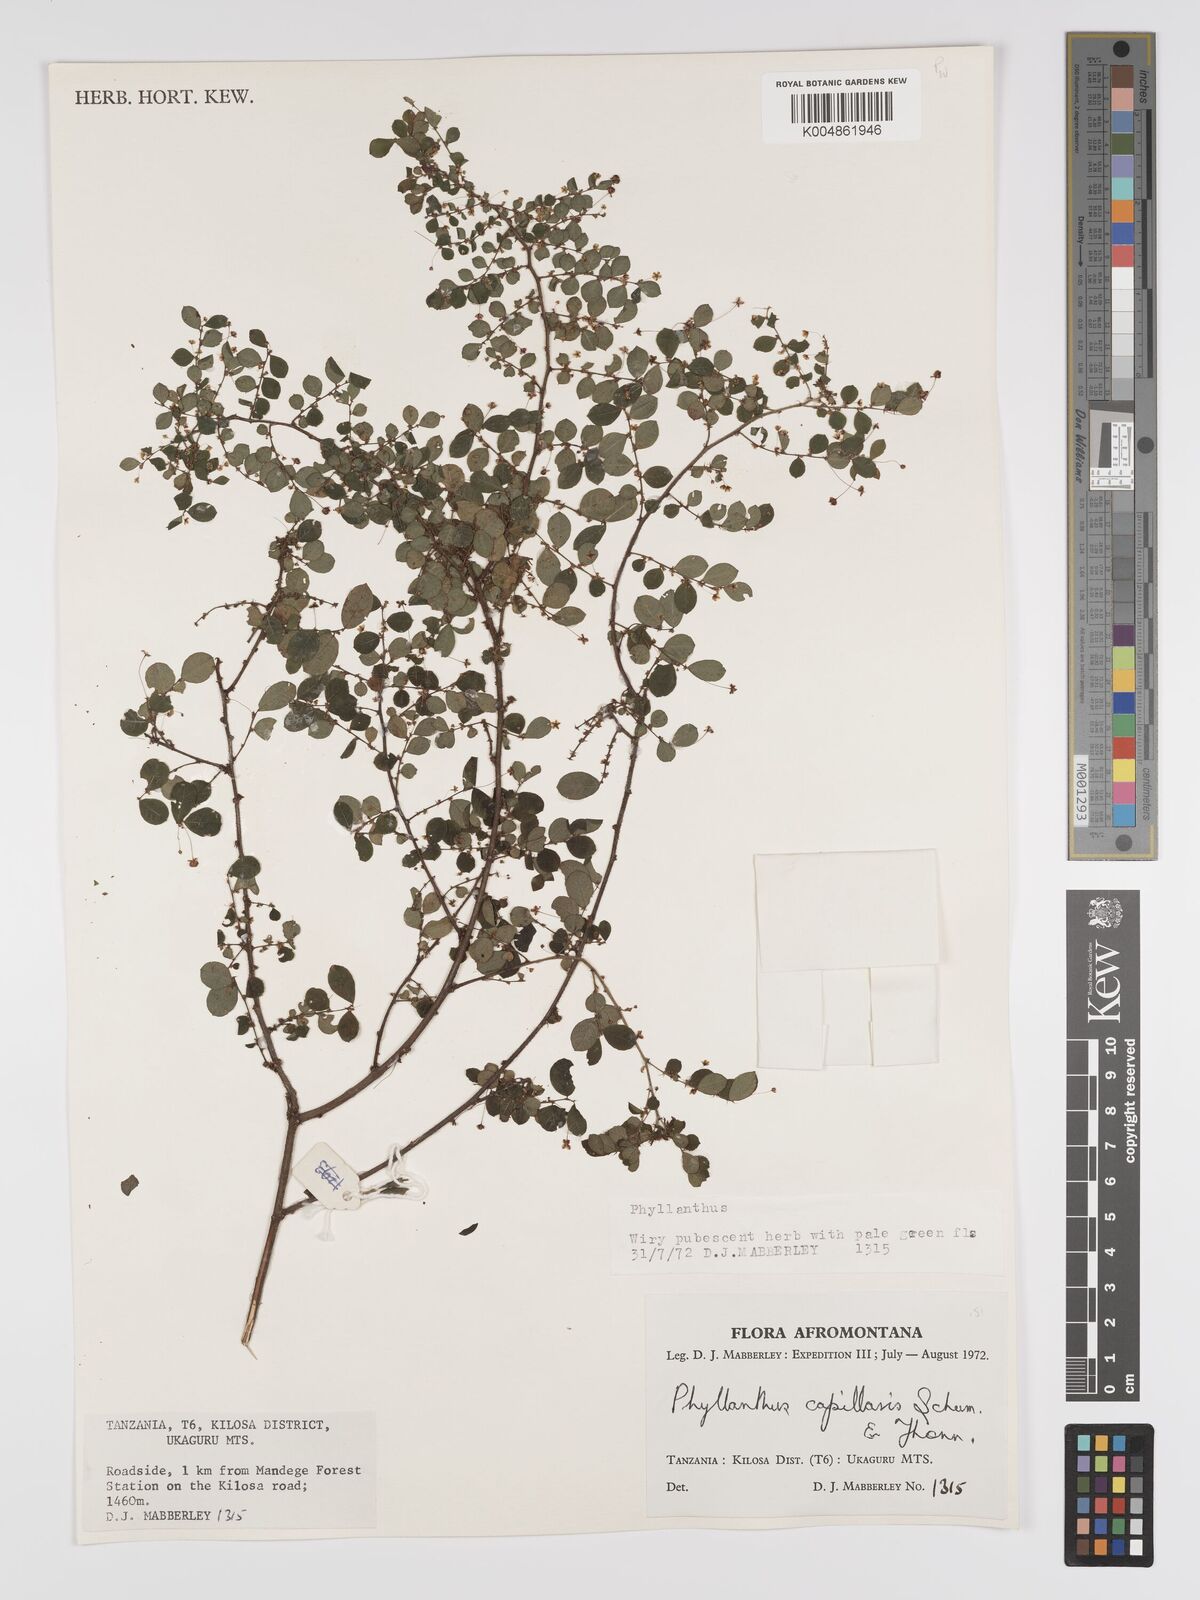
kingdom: Plantae
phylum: Tracheophyta
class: Magnoliopsida
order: Malpighiales
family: Phyllanthaceae
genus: Phyllanthus
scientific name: Phyllanthus nummulariifolius
